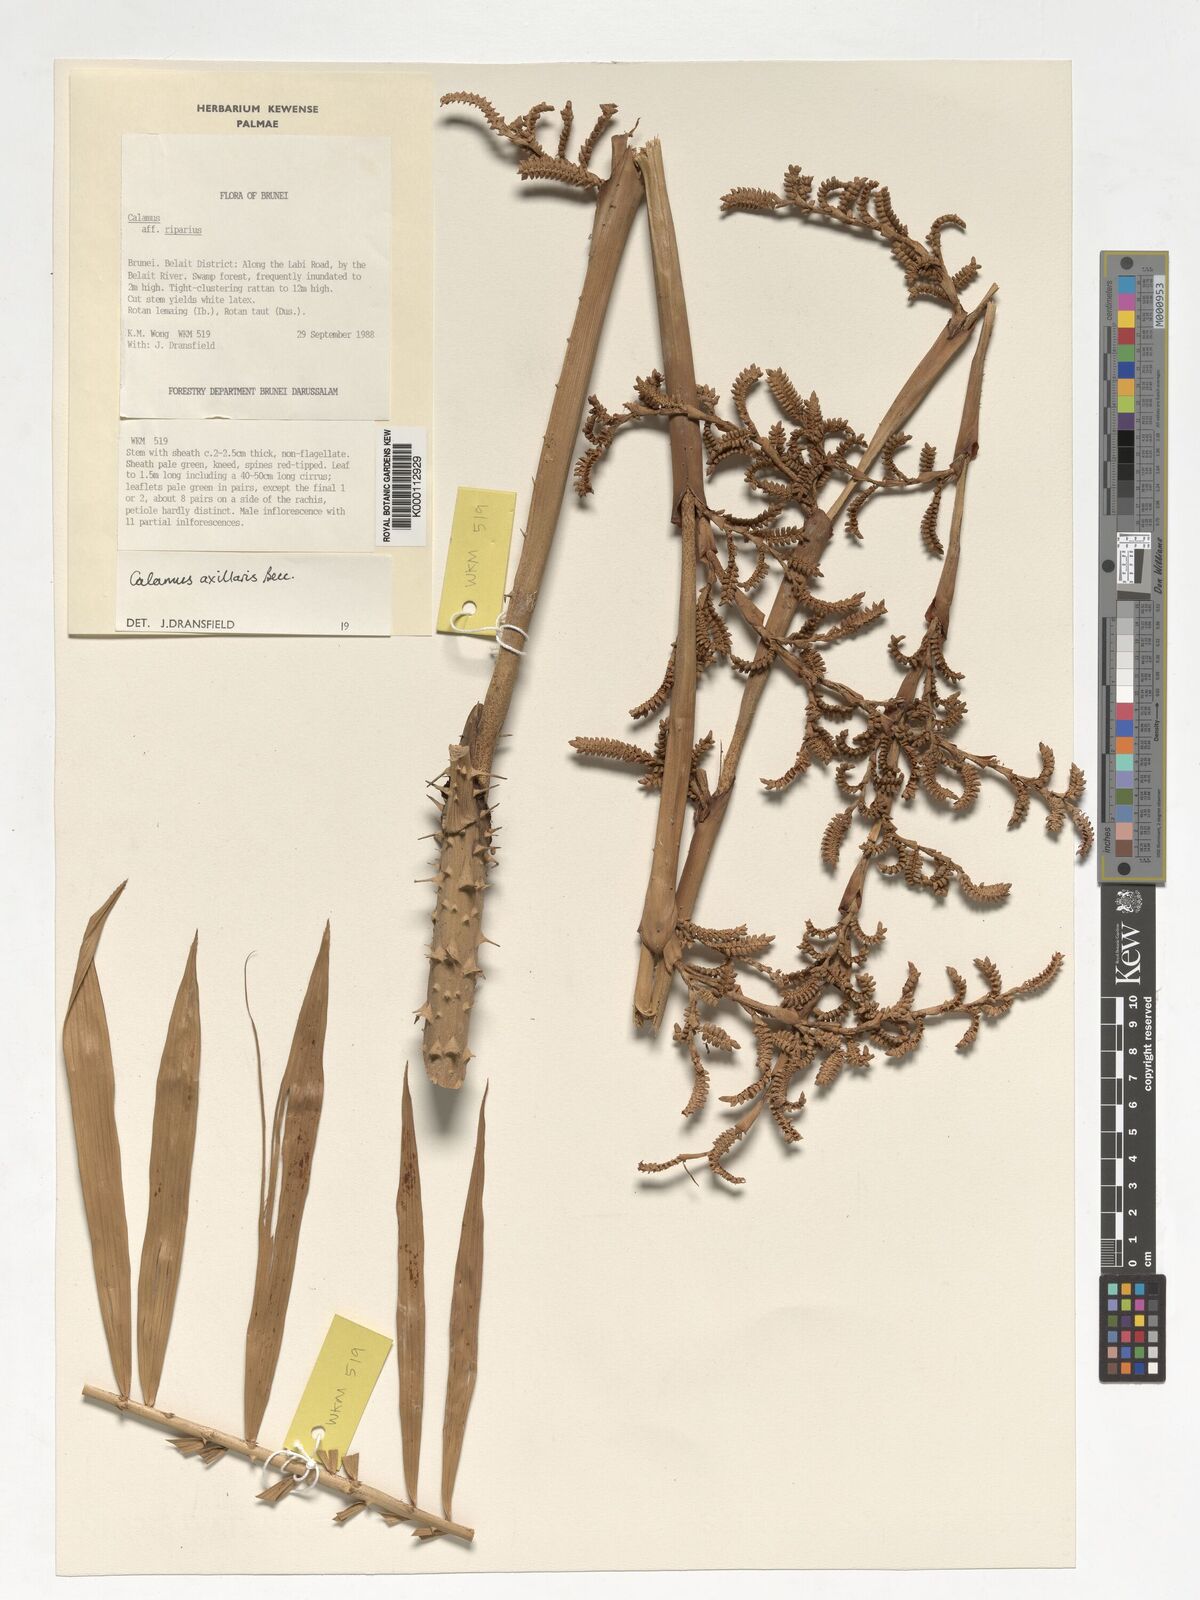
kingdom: Plantae
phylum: Tracheophyta
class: Liliopsida
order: Arecales
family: Arecaceae
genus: Calamus
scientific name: Calamus axillaris
